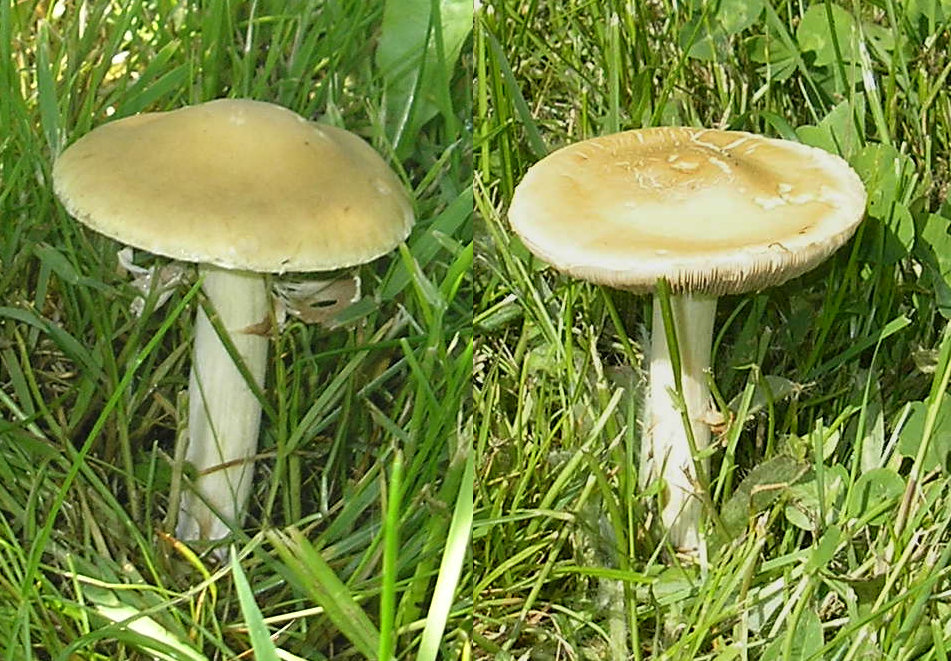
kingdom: Fungi
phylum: Basidiomycota
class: Agaricomycetes
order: Agaricales
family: Strophariaceae
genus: Agrocybe
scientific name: Agrocybe praecox
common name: tidlig agerhat
